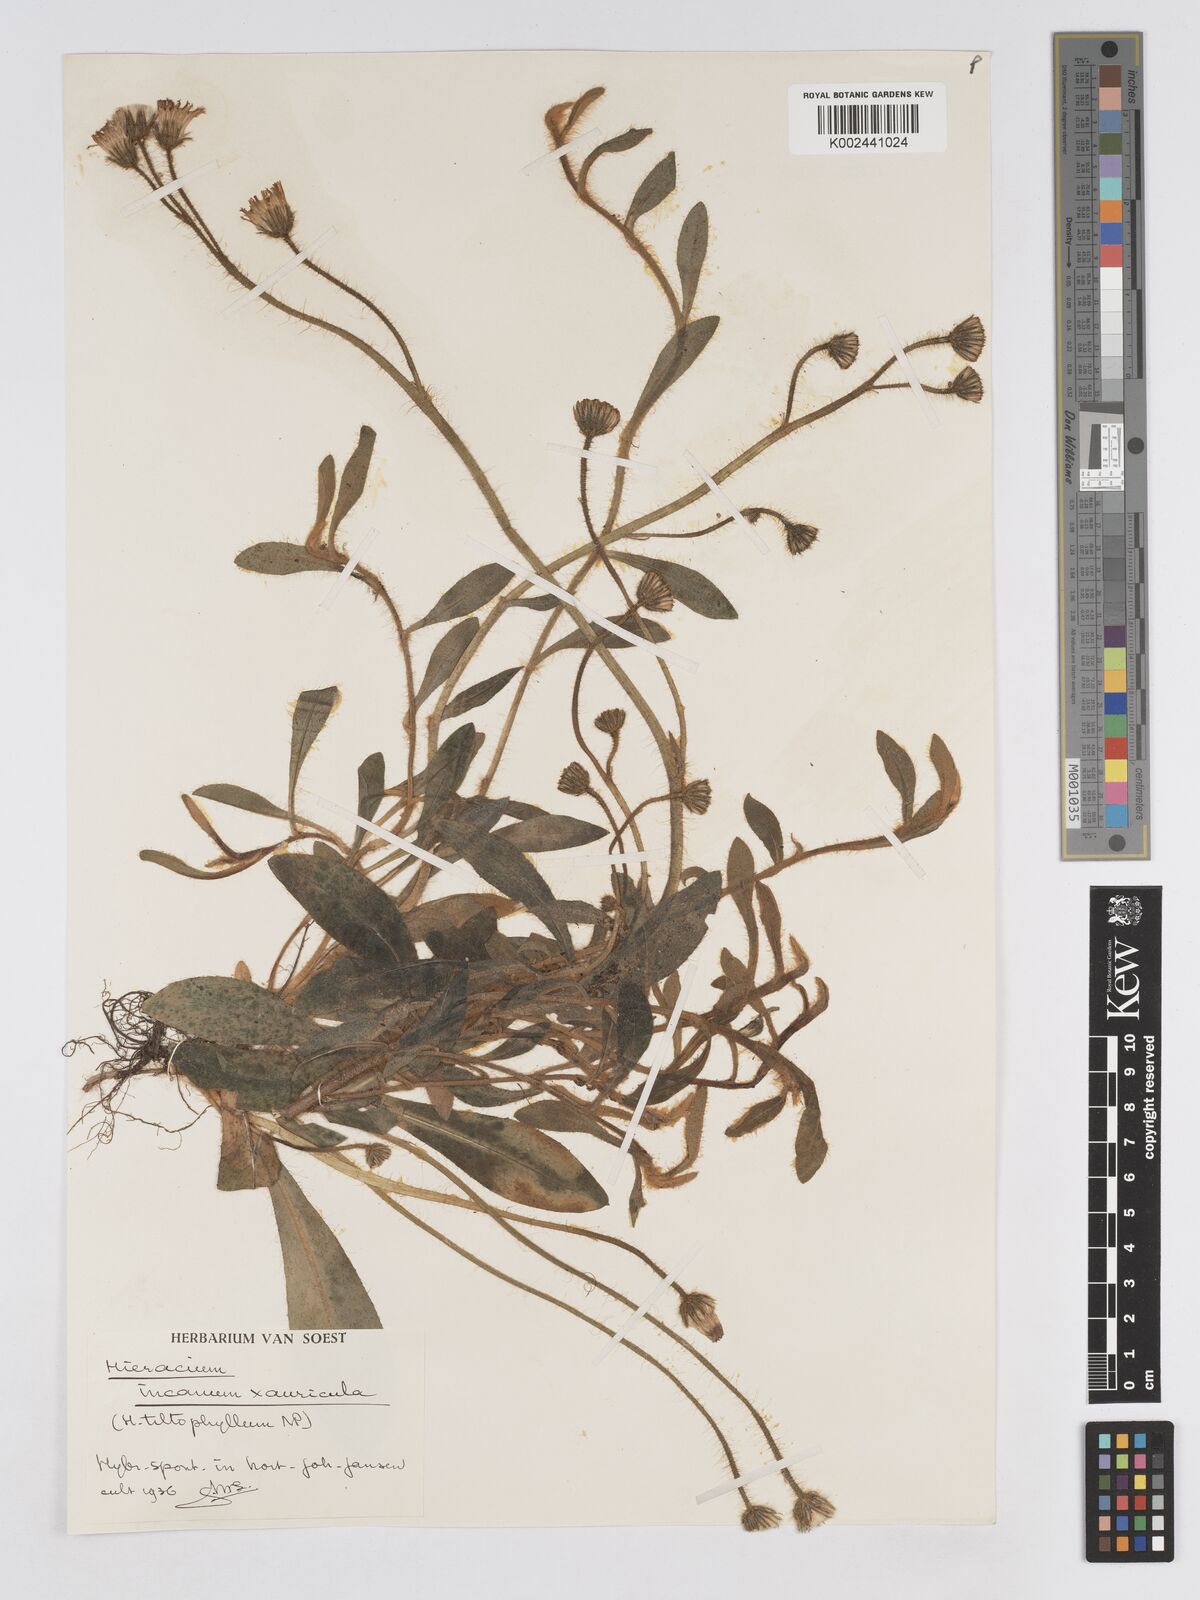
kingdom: Plantae
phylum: Tracheophyta
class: Magnoliopsida
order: Asterales
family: Asteraceae
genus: Pilosella
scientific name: Pilosella schultesii
